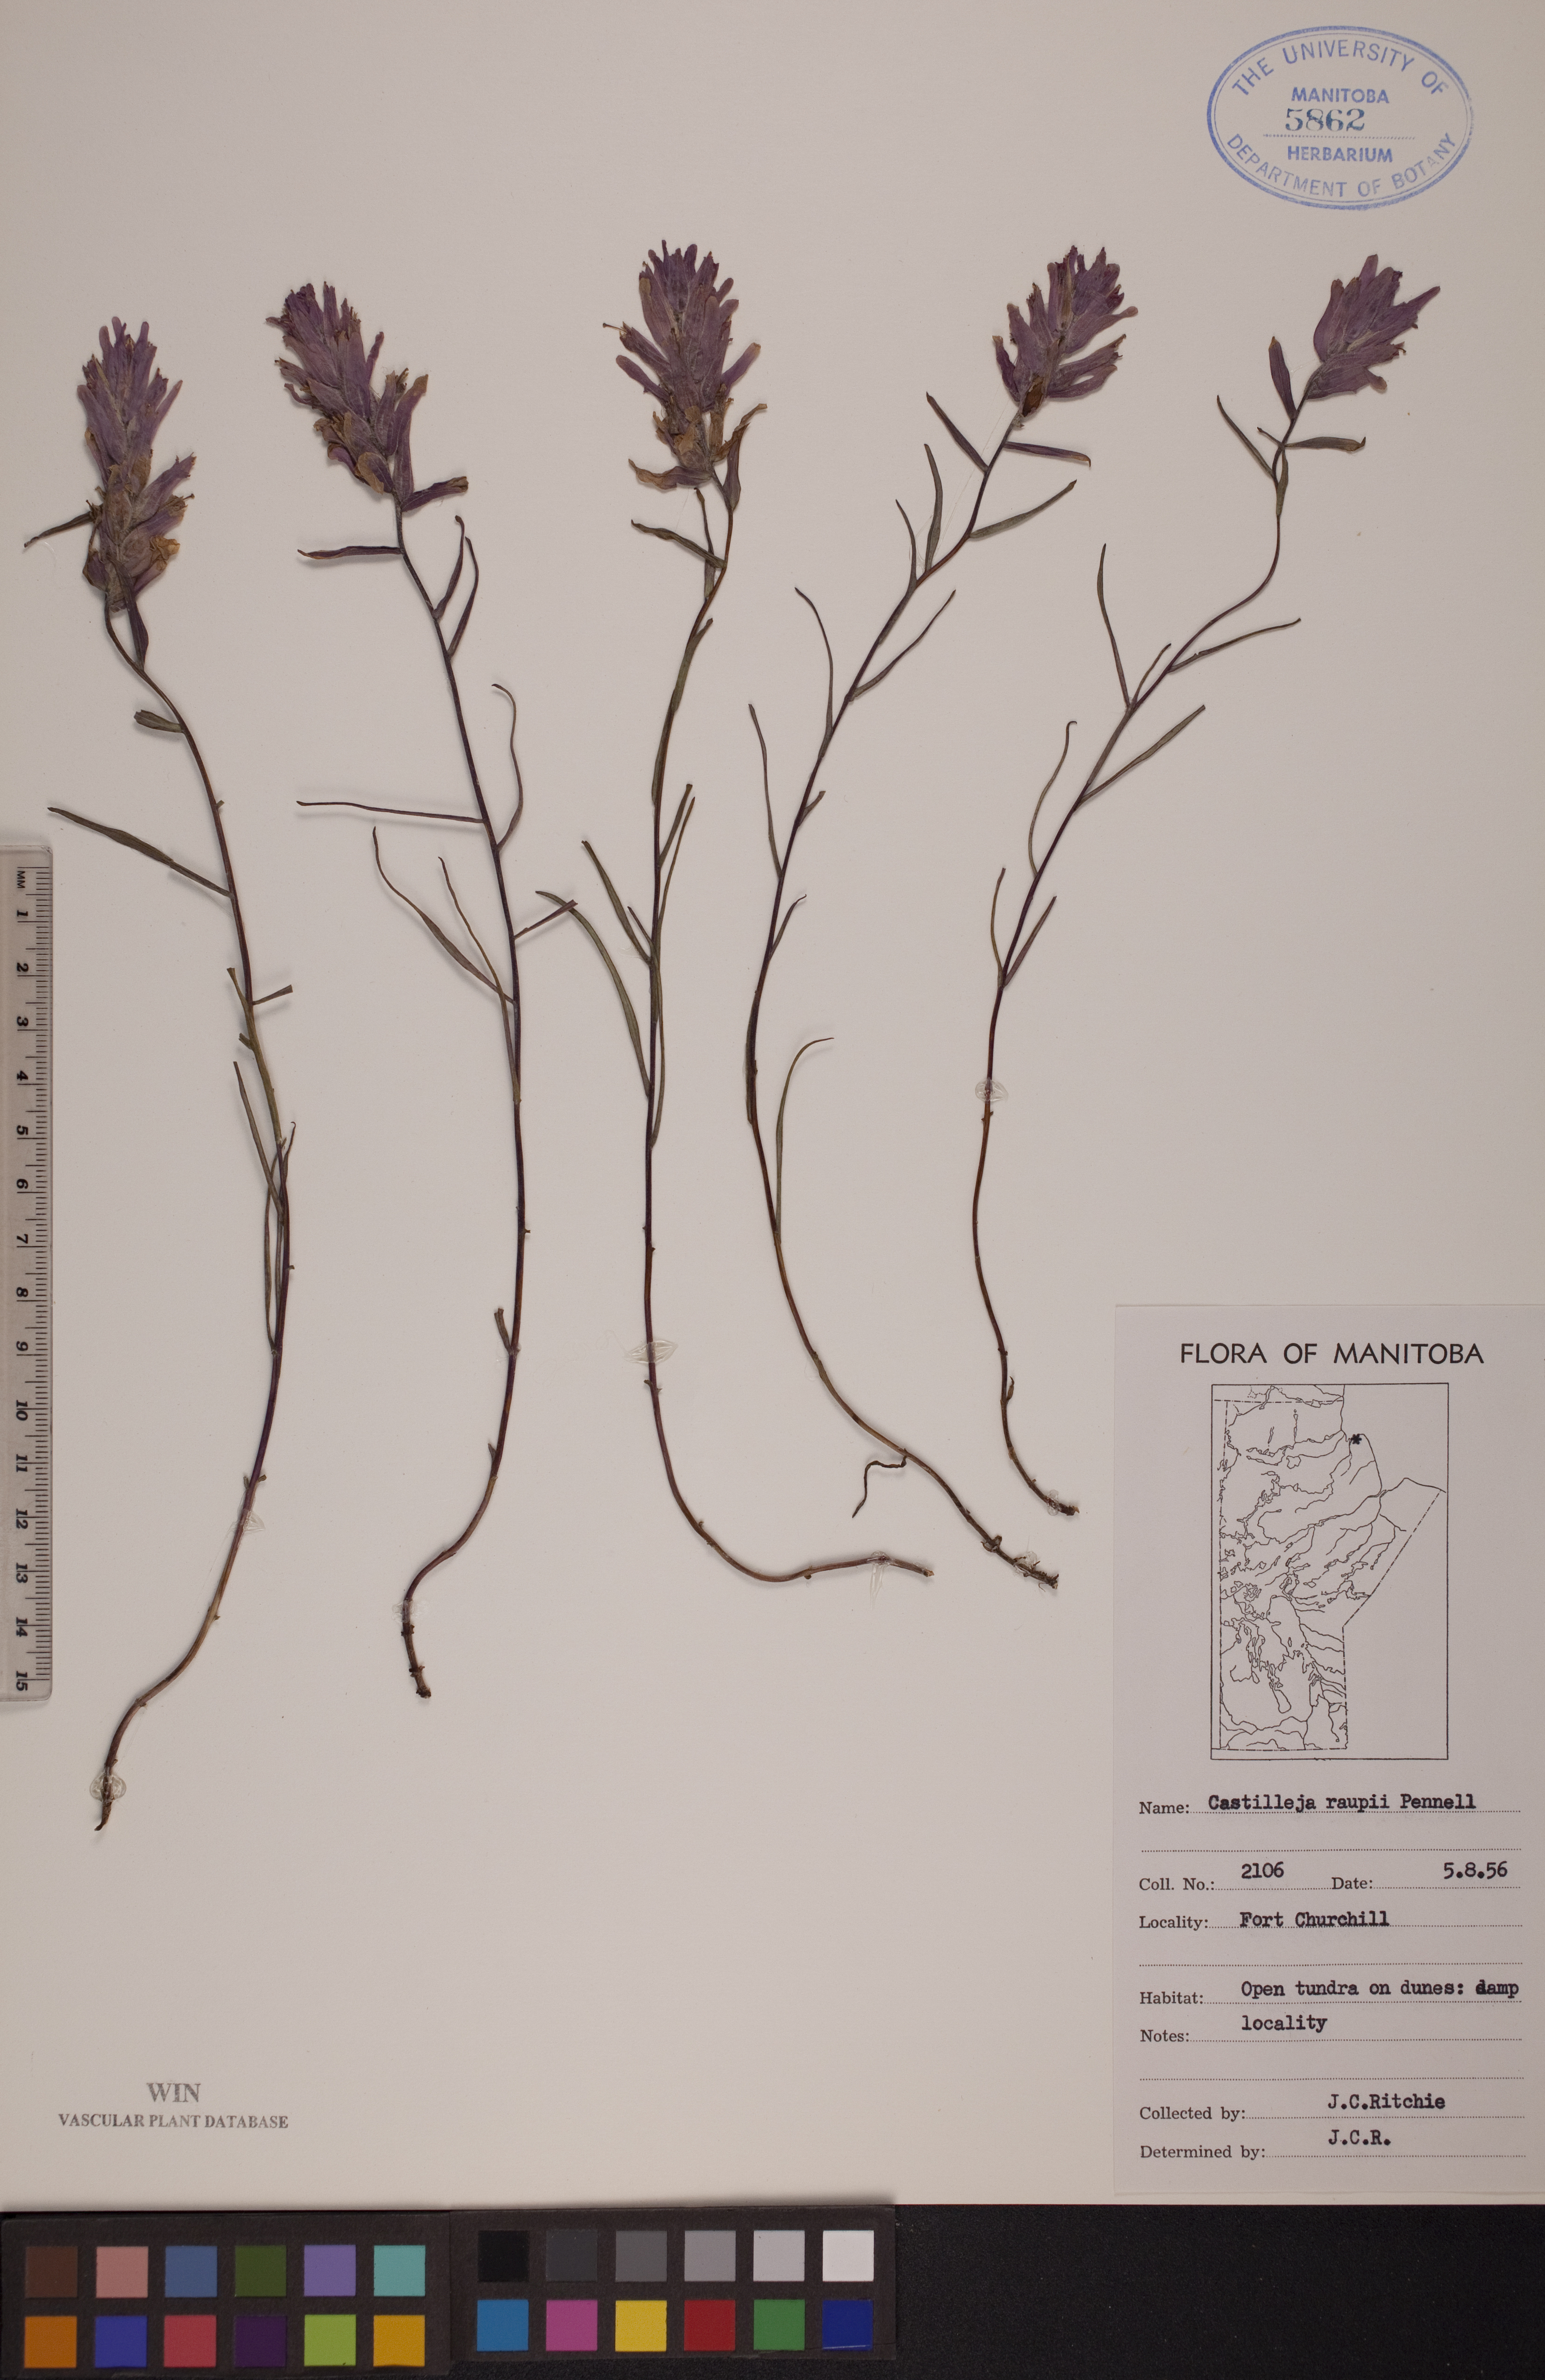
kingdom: Plantae
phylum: Tracheophyta
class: Magnoliopsida
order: Lamiales
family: Orobanchaceae
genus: Castilleja
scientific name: Castilleja raupii
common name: Raup's paintbrush
